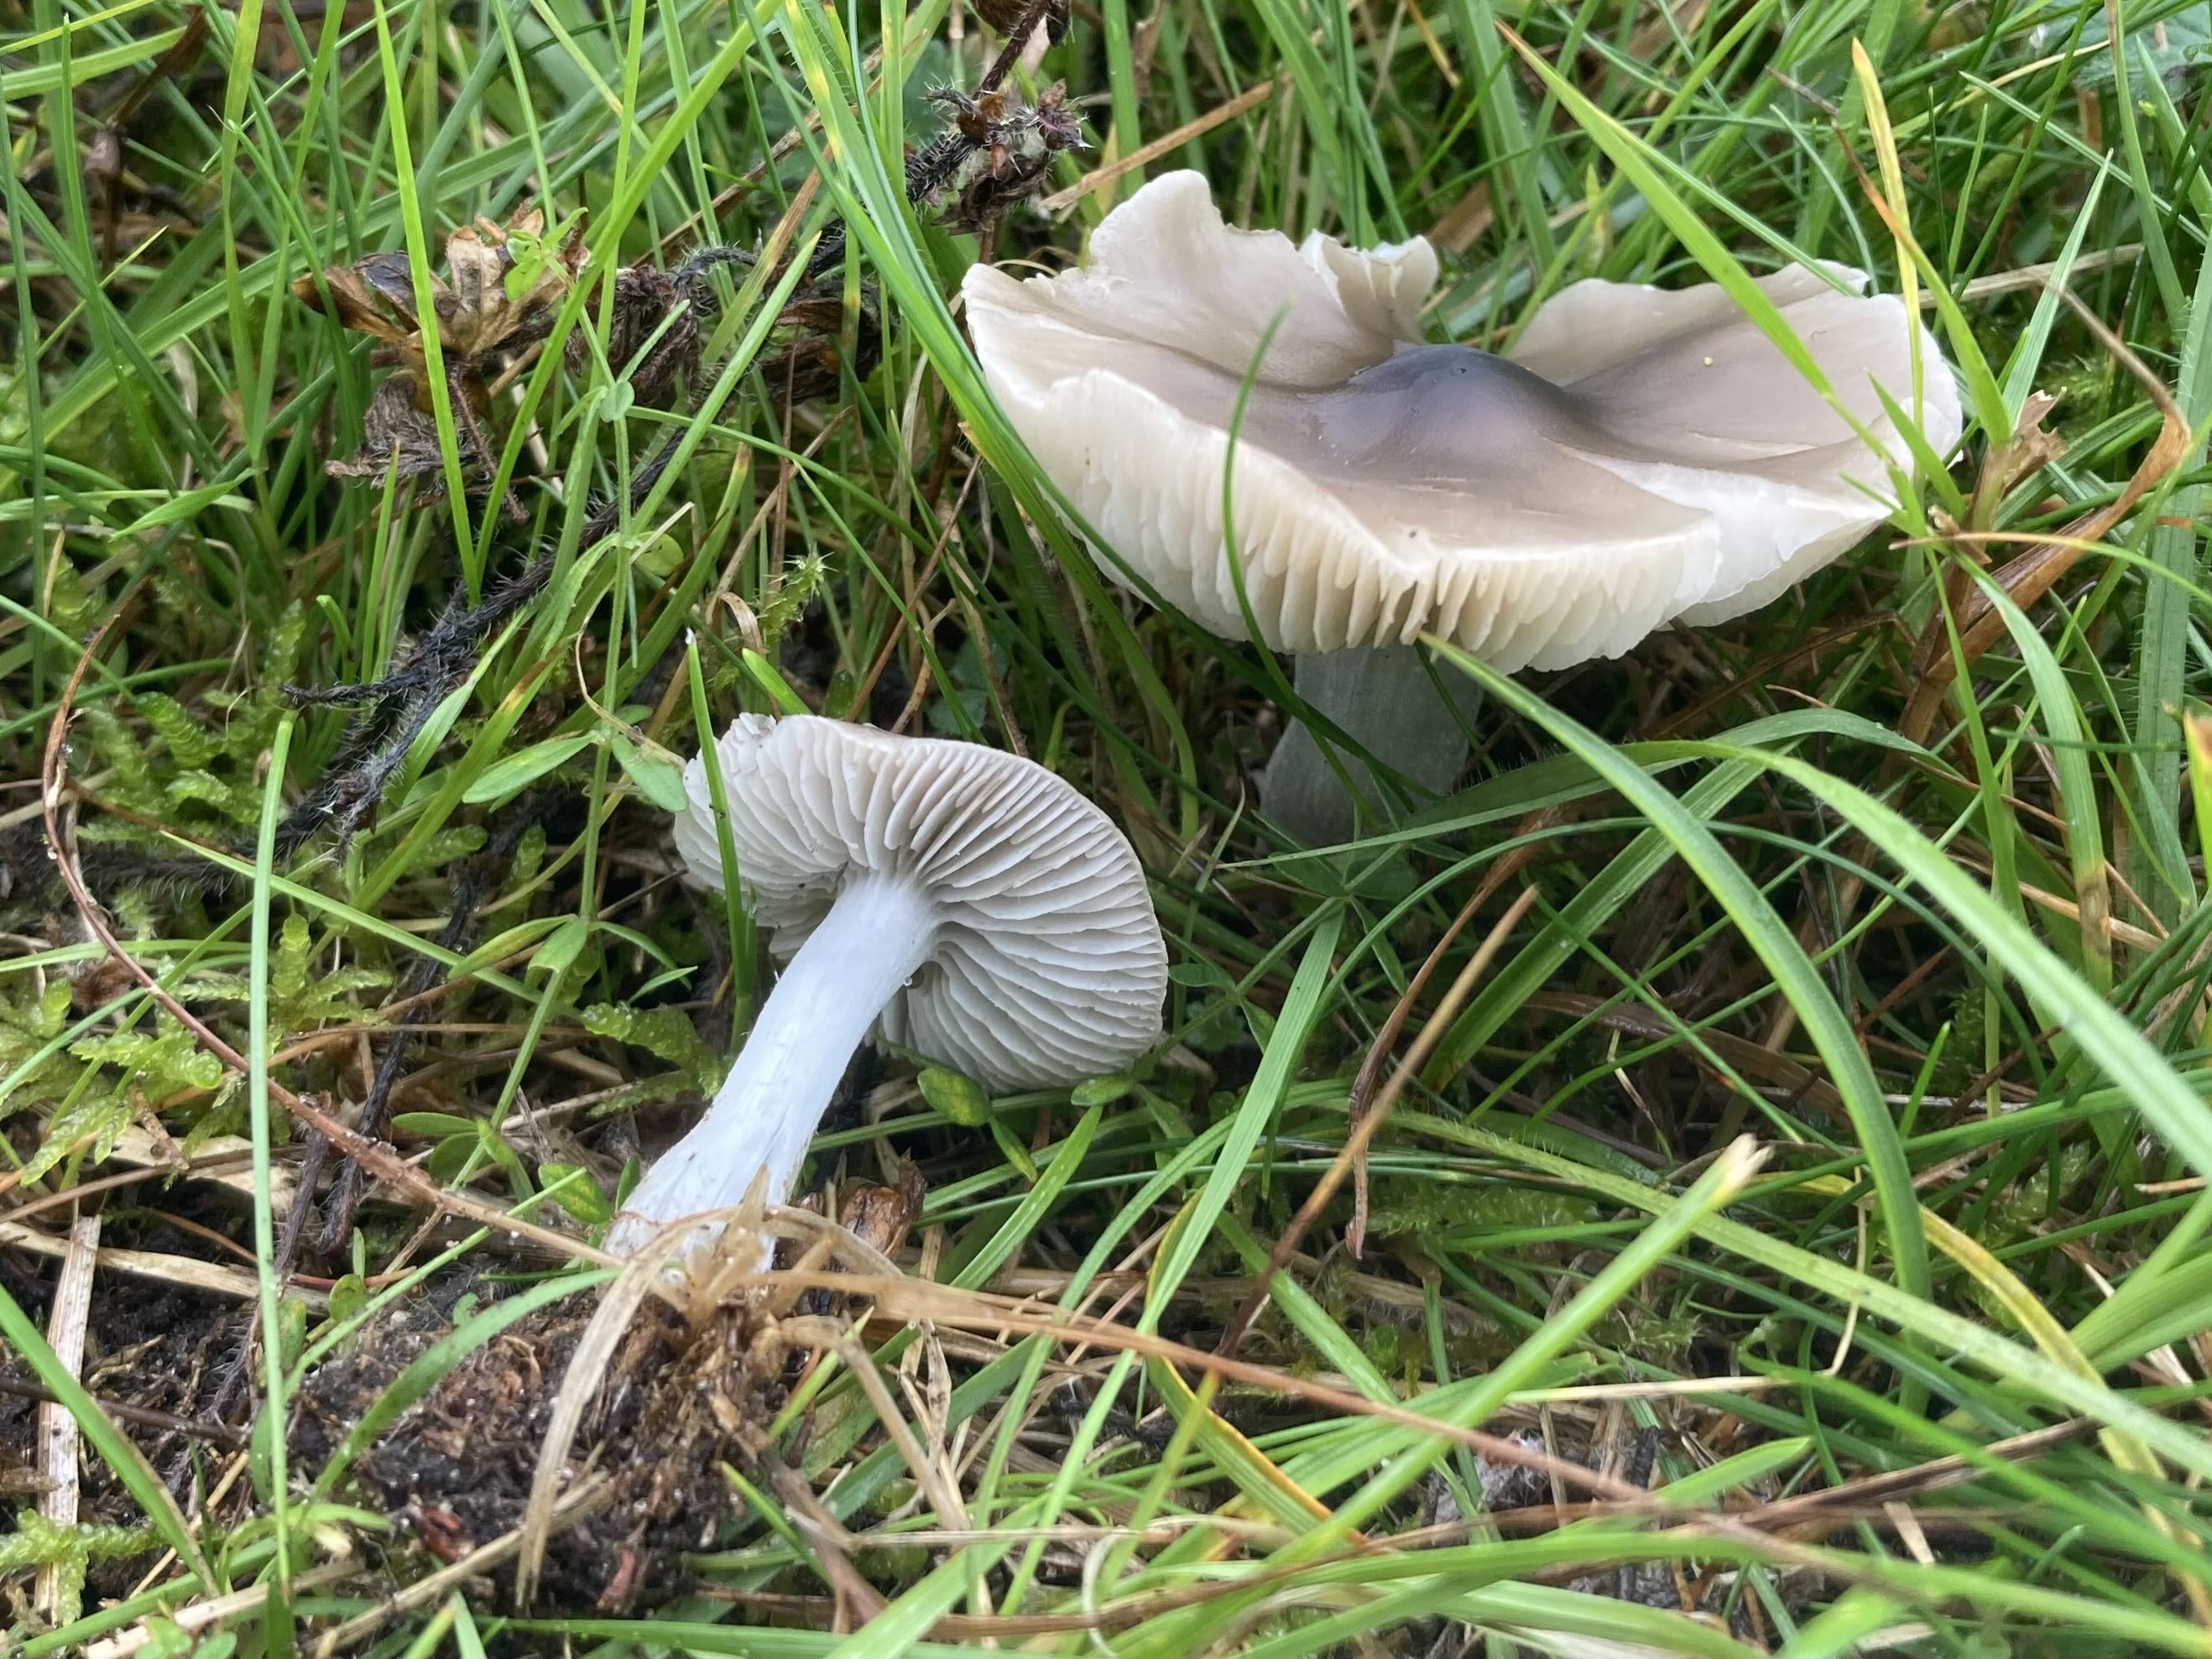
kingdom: Fungi
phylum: Basidiomycota
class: Agaricomycetes
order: Agaricales
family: Tricholomataceae
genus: Dermoloma
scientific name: Dermoloma cuneifolium
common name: eng-nonnehat
